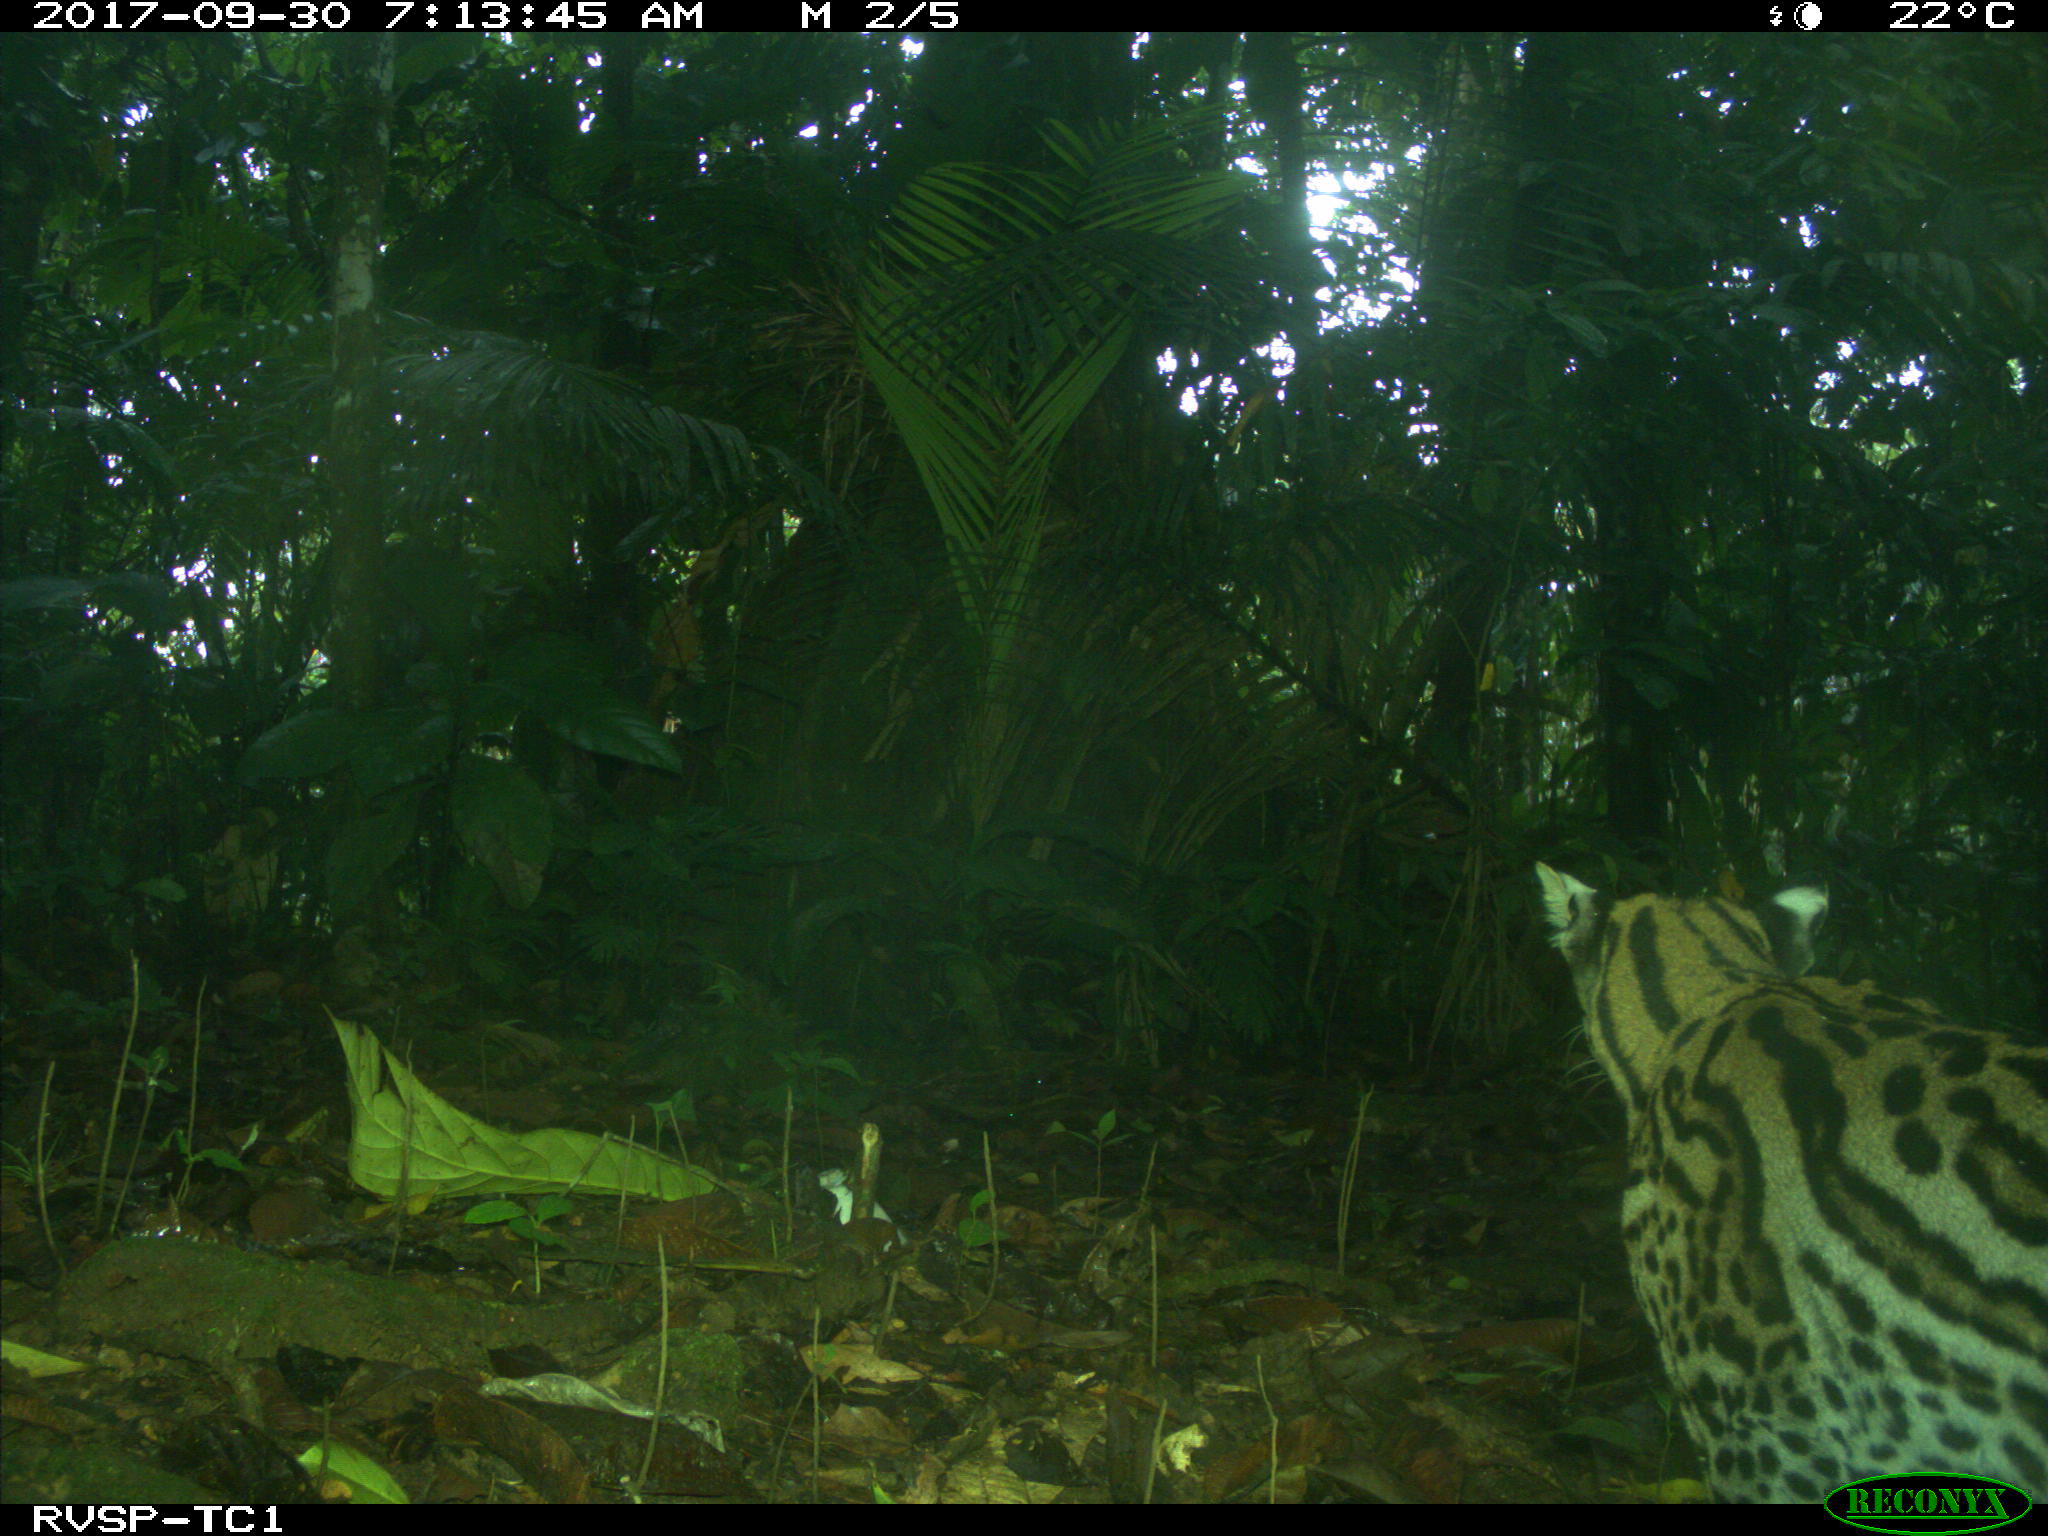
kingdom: Animalia
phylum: Chordata
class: Mammalia
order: Carnivora
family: Felidae
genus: Leopardus
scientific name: Leopardus pardalis
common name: Ocelot
